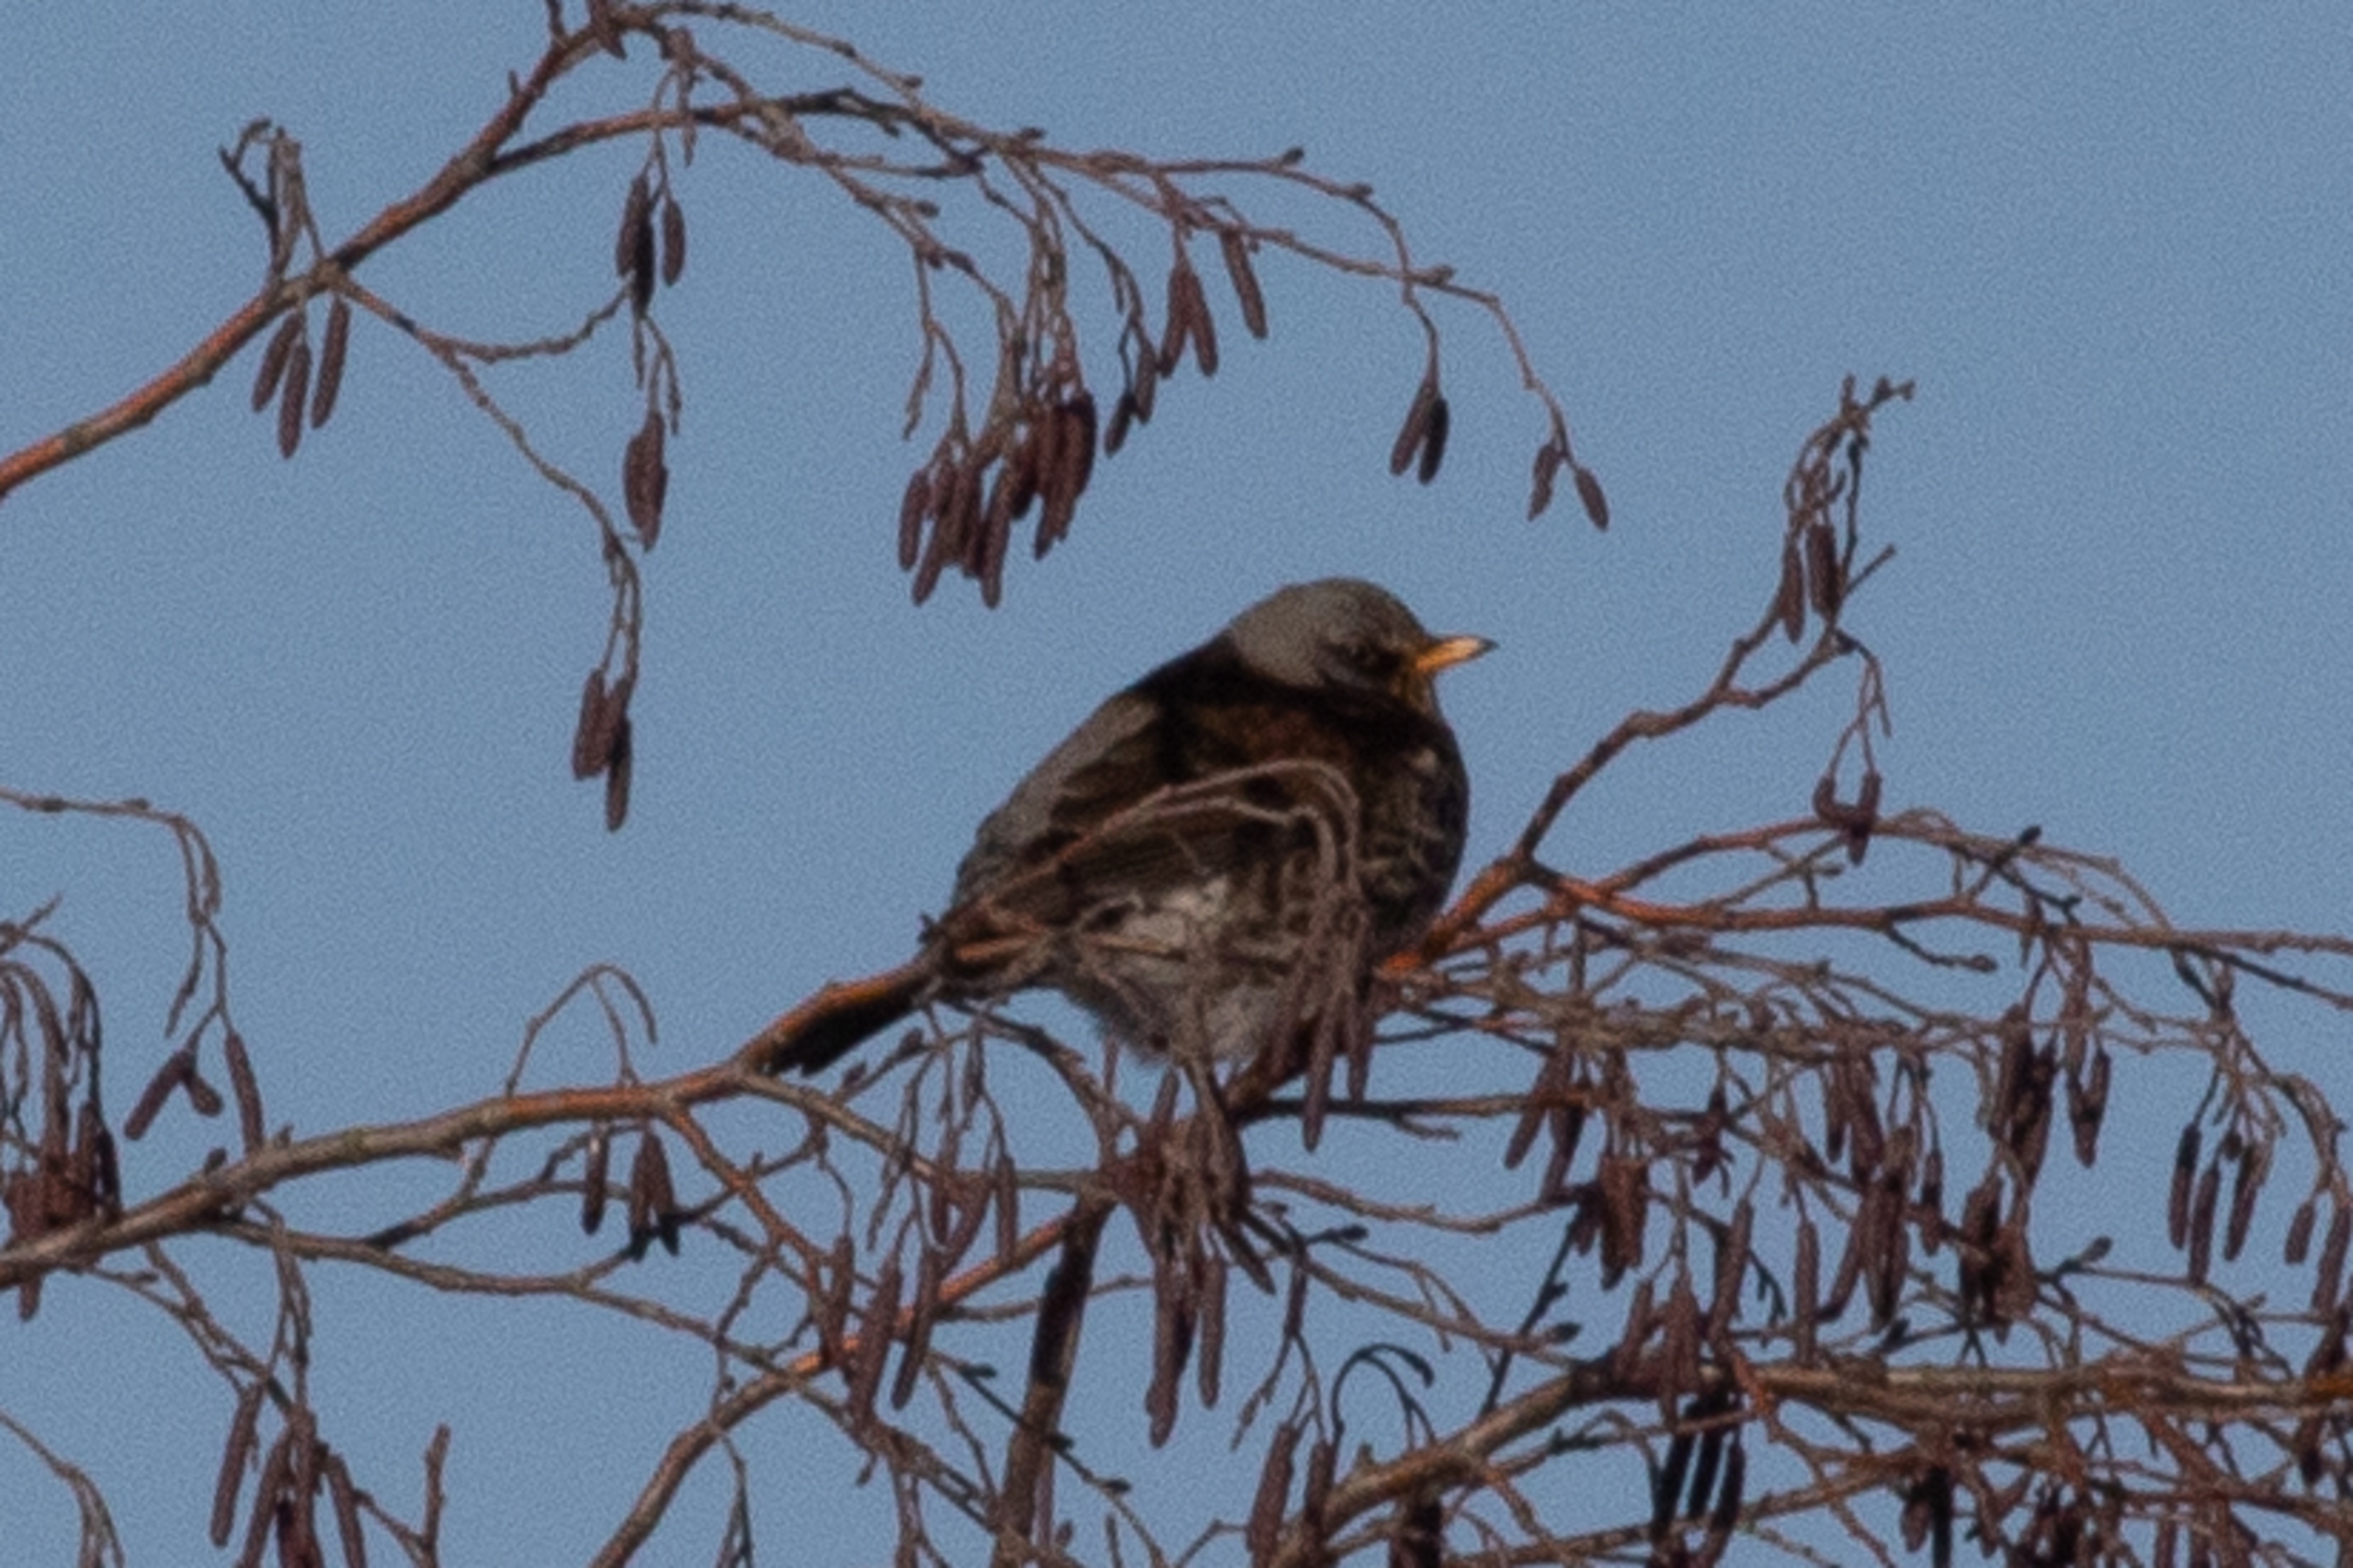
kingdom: Animalia
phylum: Chordata
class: Aves
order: Passeriformes
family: Turdidae
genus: Turdus
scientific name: Turdus pilaris
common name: Sjagger
